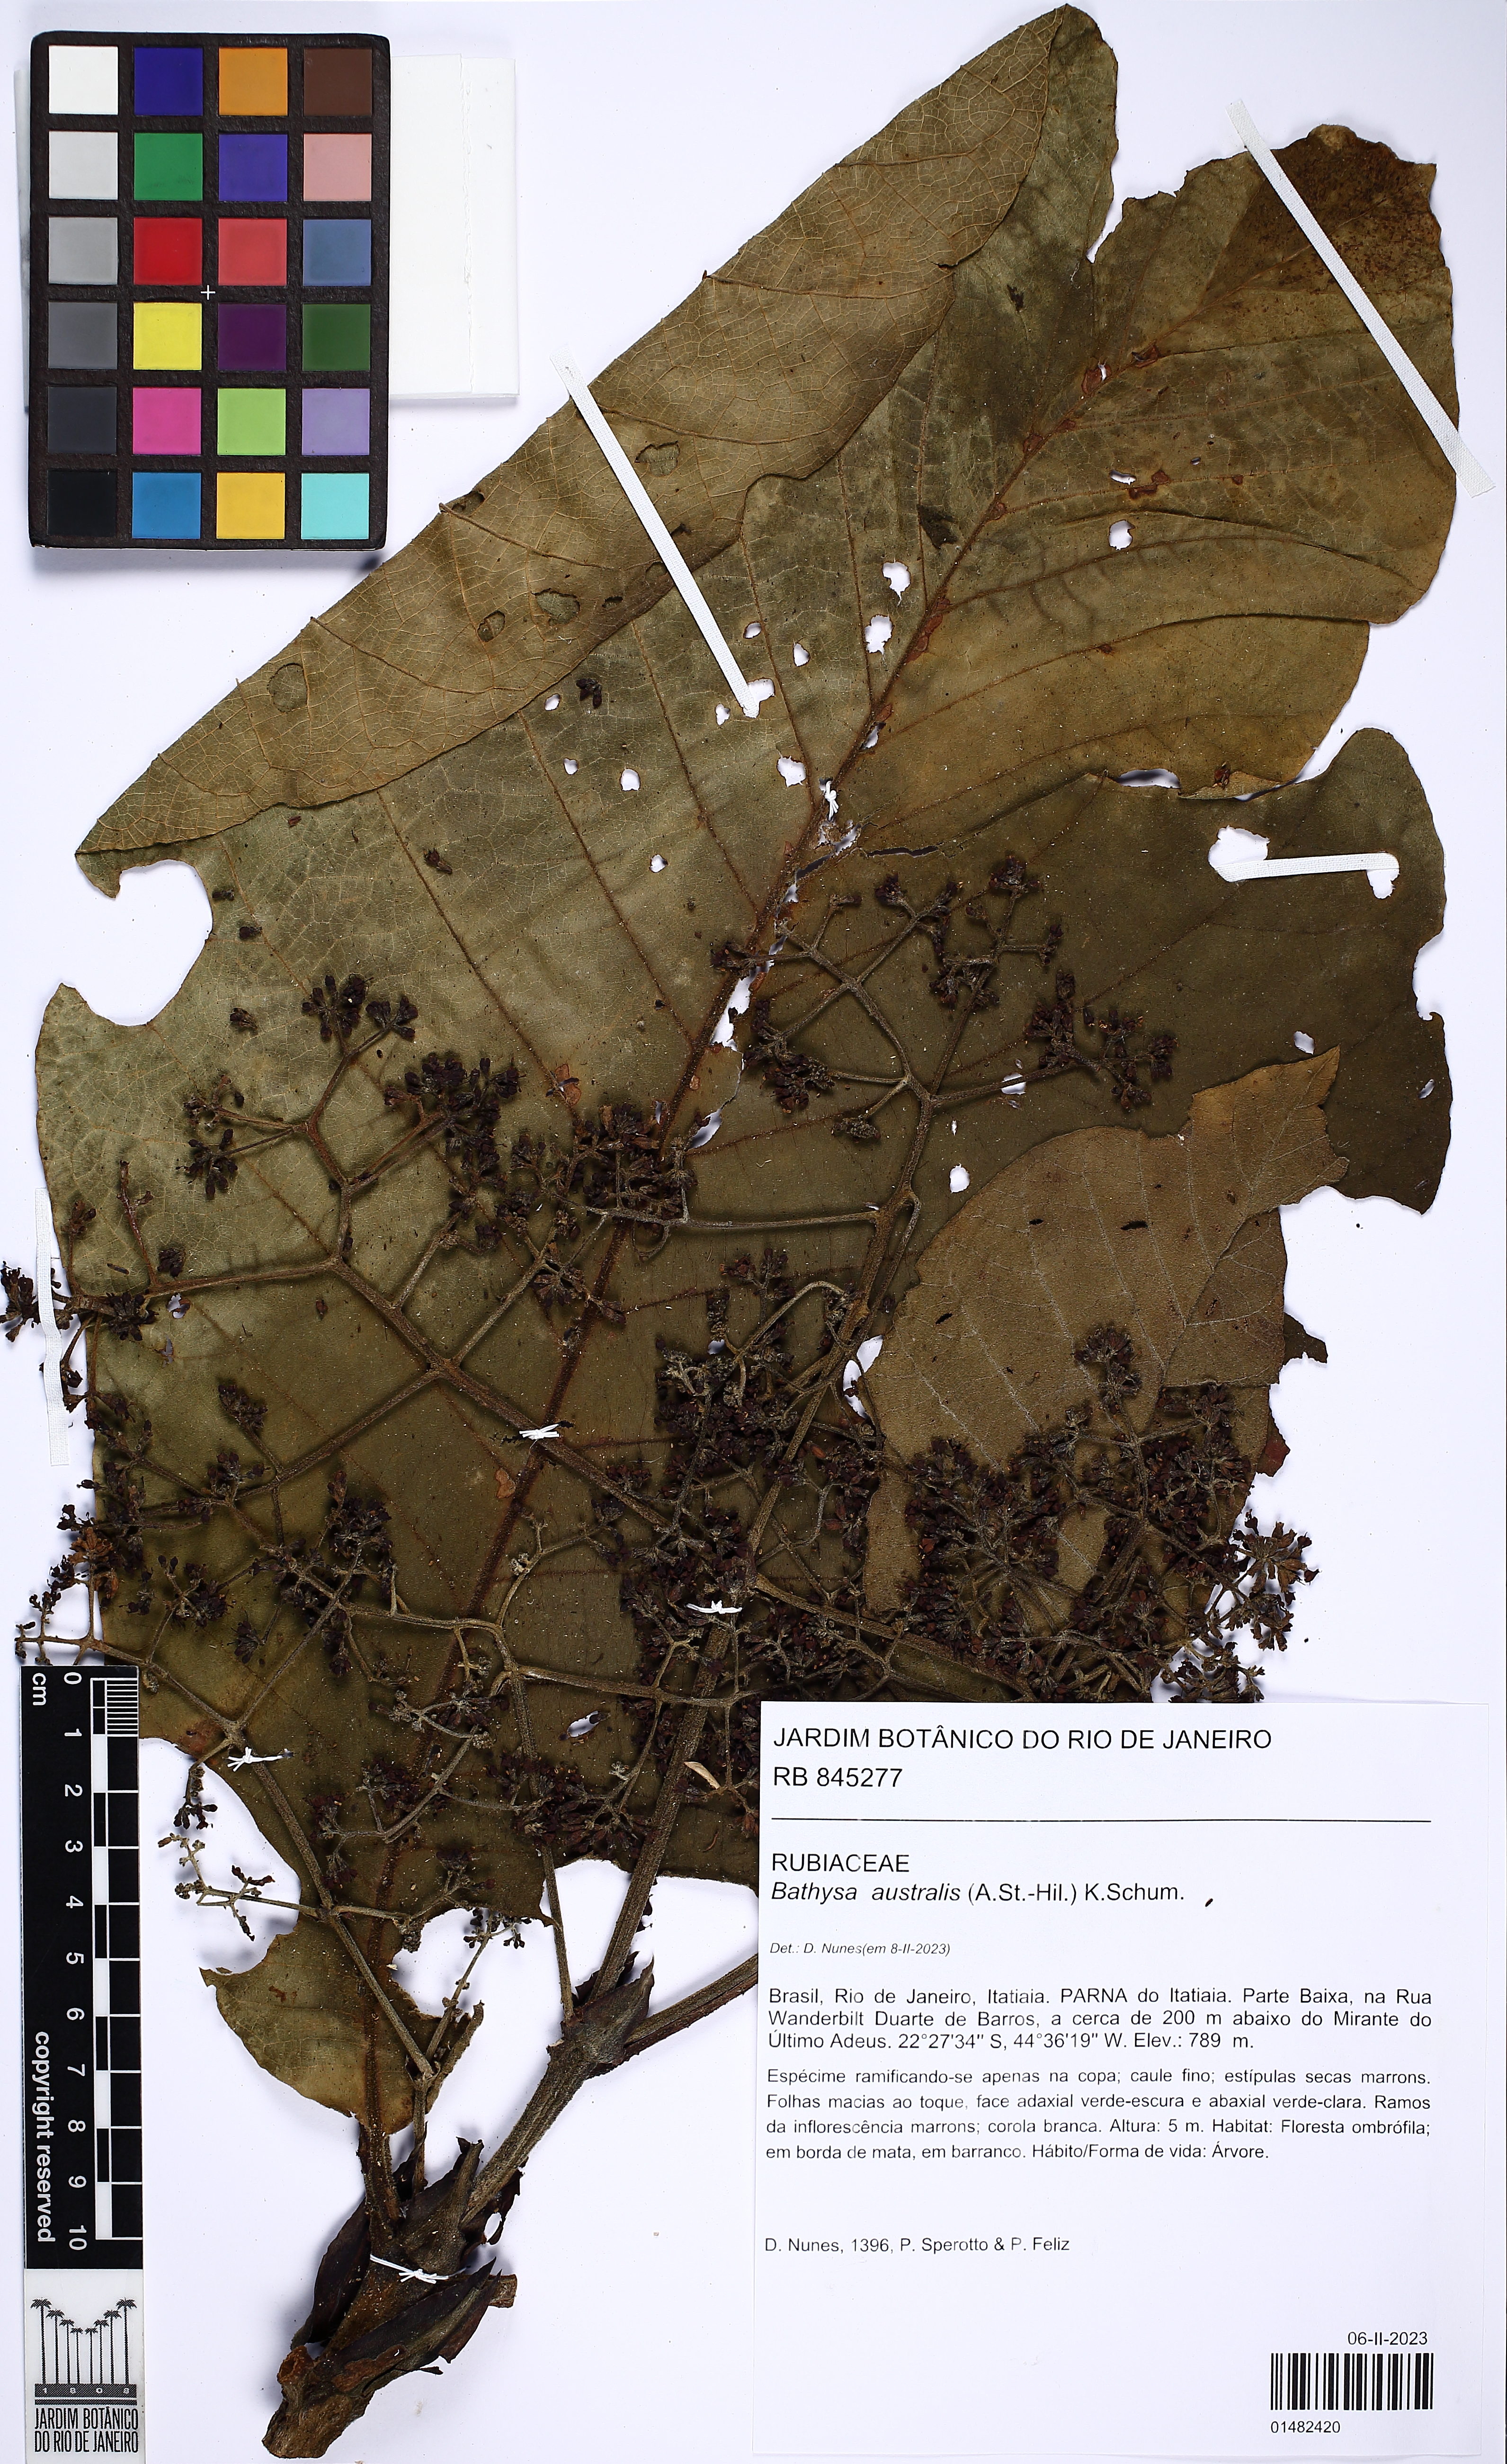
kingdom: Plantae
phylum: Tracheophyta
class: Magnoliopsida
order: Gentianales
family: Rubiaceae
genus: Bathysa
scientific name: Bathysa australis
